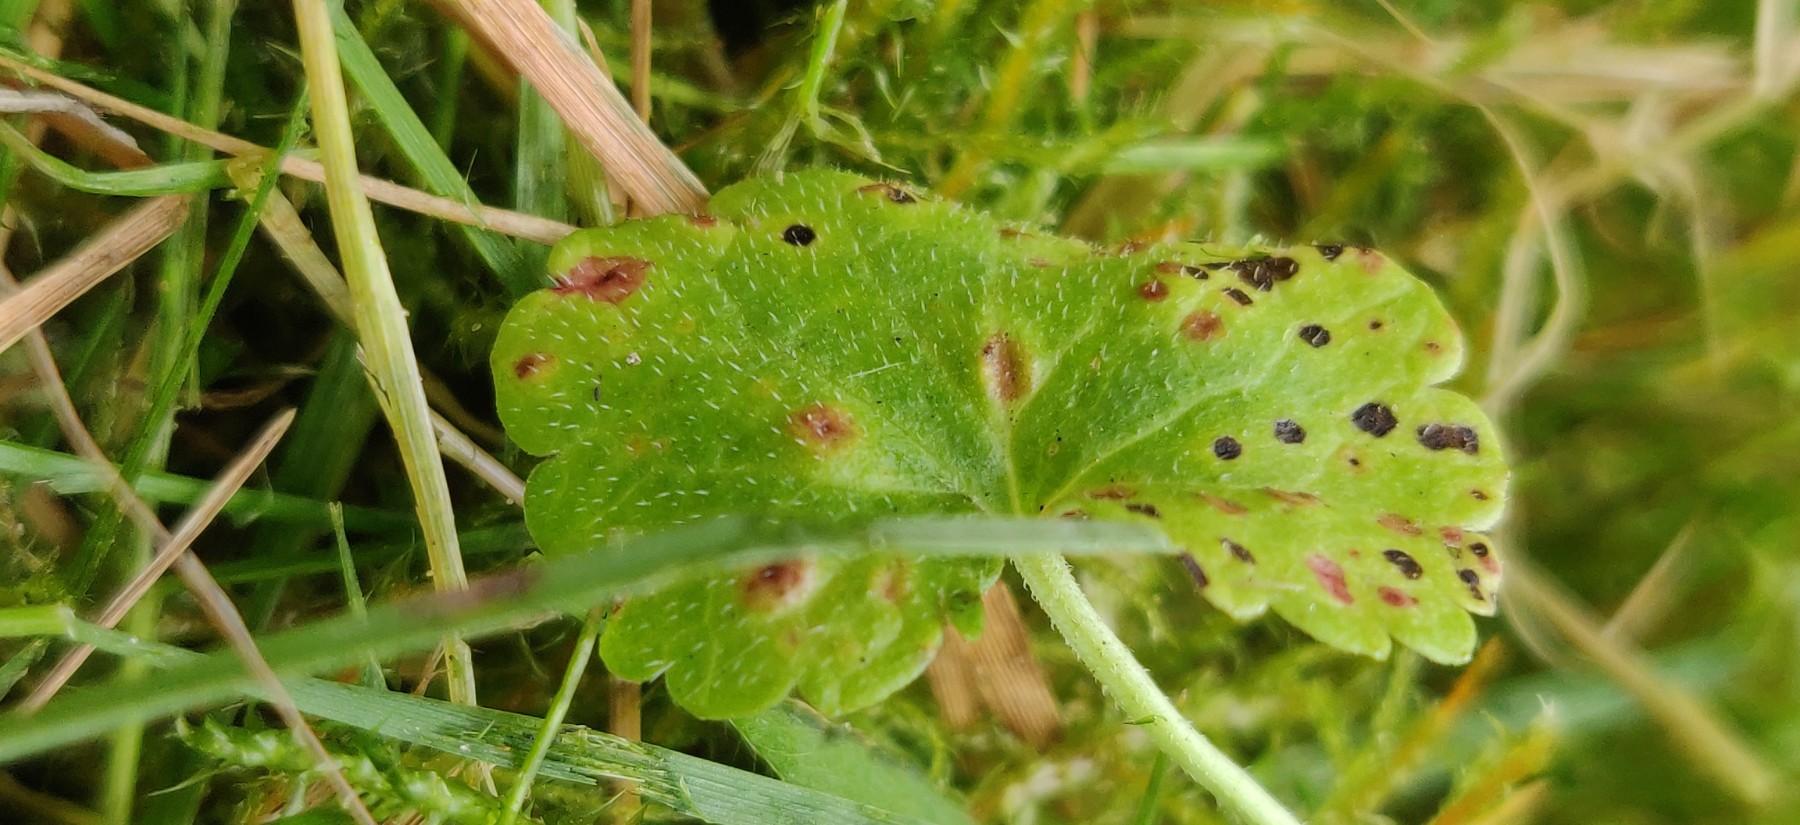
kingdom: Fungi
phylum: Basidiomycota
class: Pucciniomycetes
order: Pucciniales
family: Pucciniaceae
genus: Puccinia
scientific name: Puccinia glechomatis
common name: Ground ivy rust
